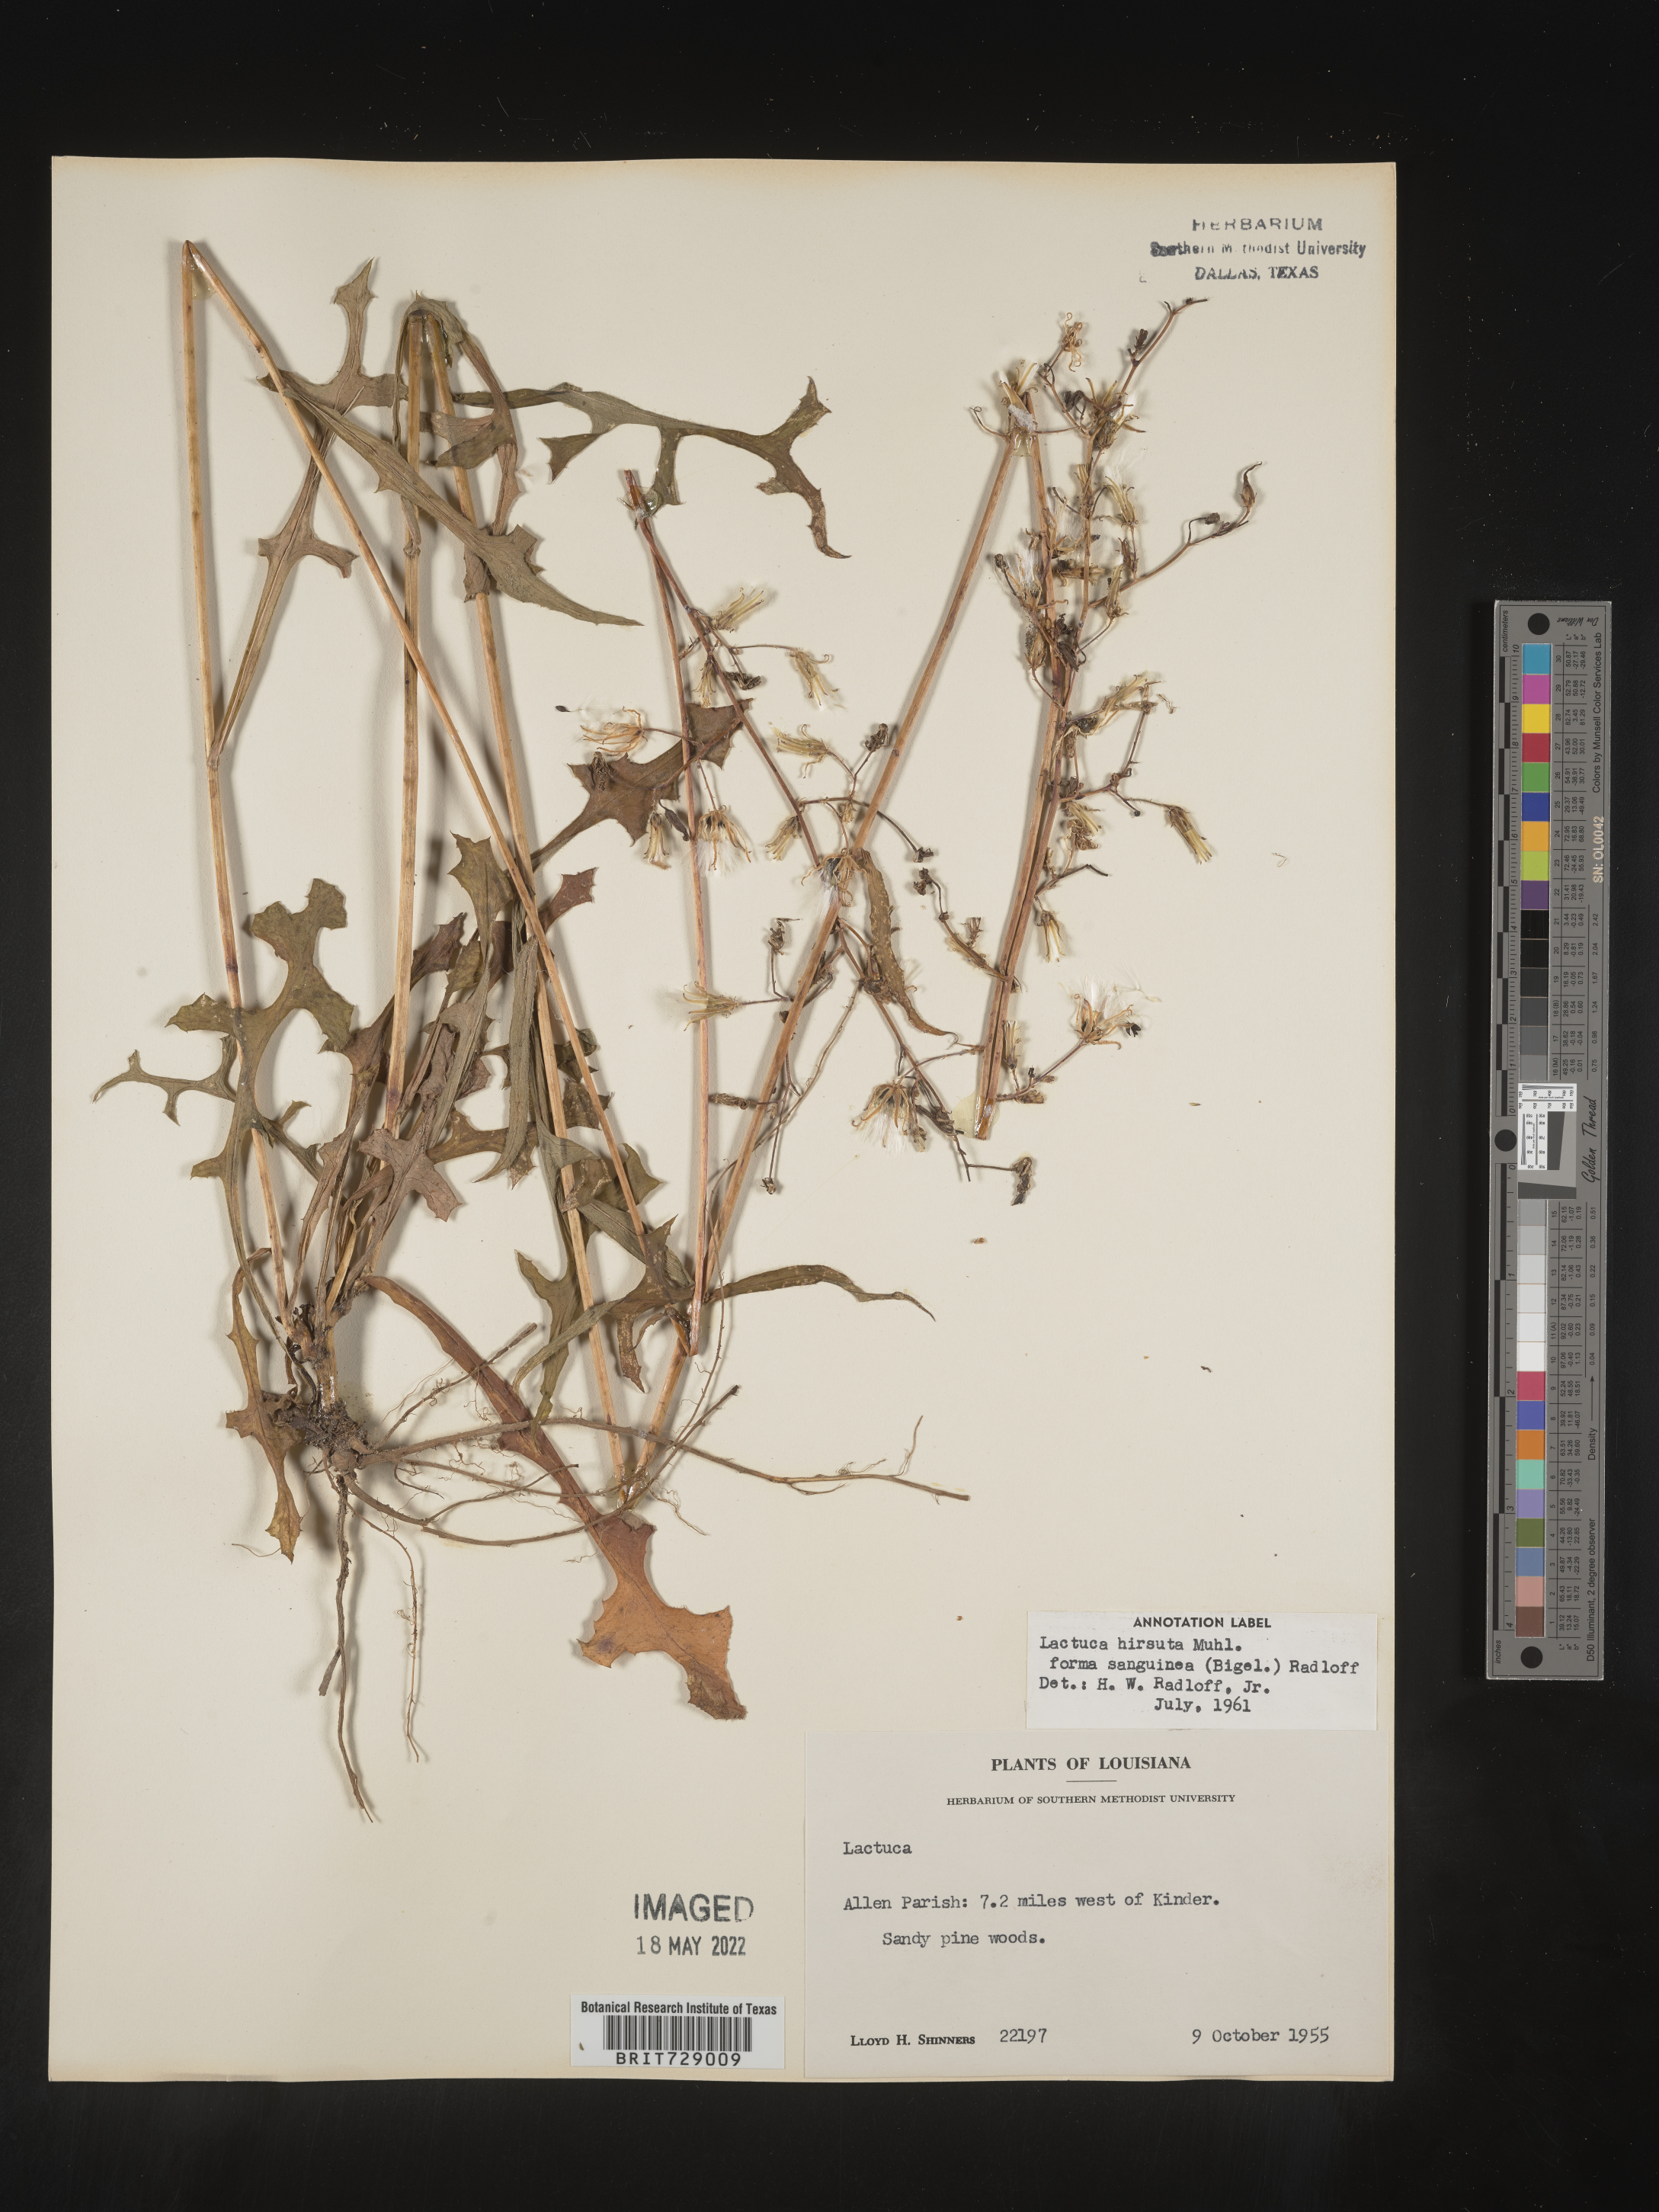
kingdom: Plantae
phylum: Tracheophyta
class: Magnoliopsida
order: Asterales
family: Asteraceae
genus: Lactuca
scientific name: Lactuca hirsuta
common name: Hairy lettuce
